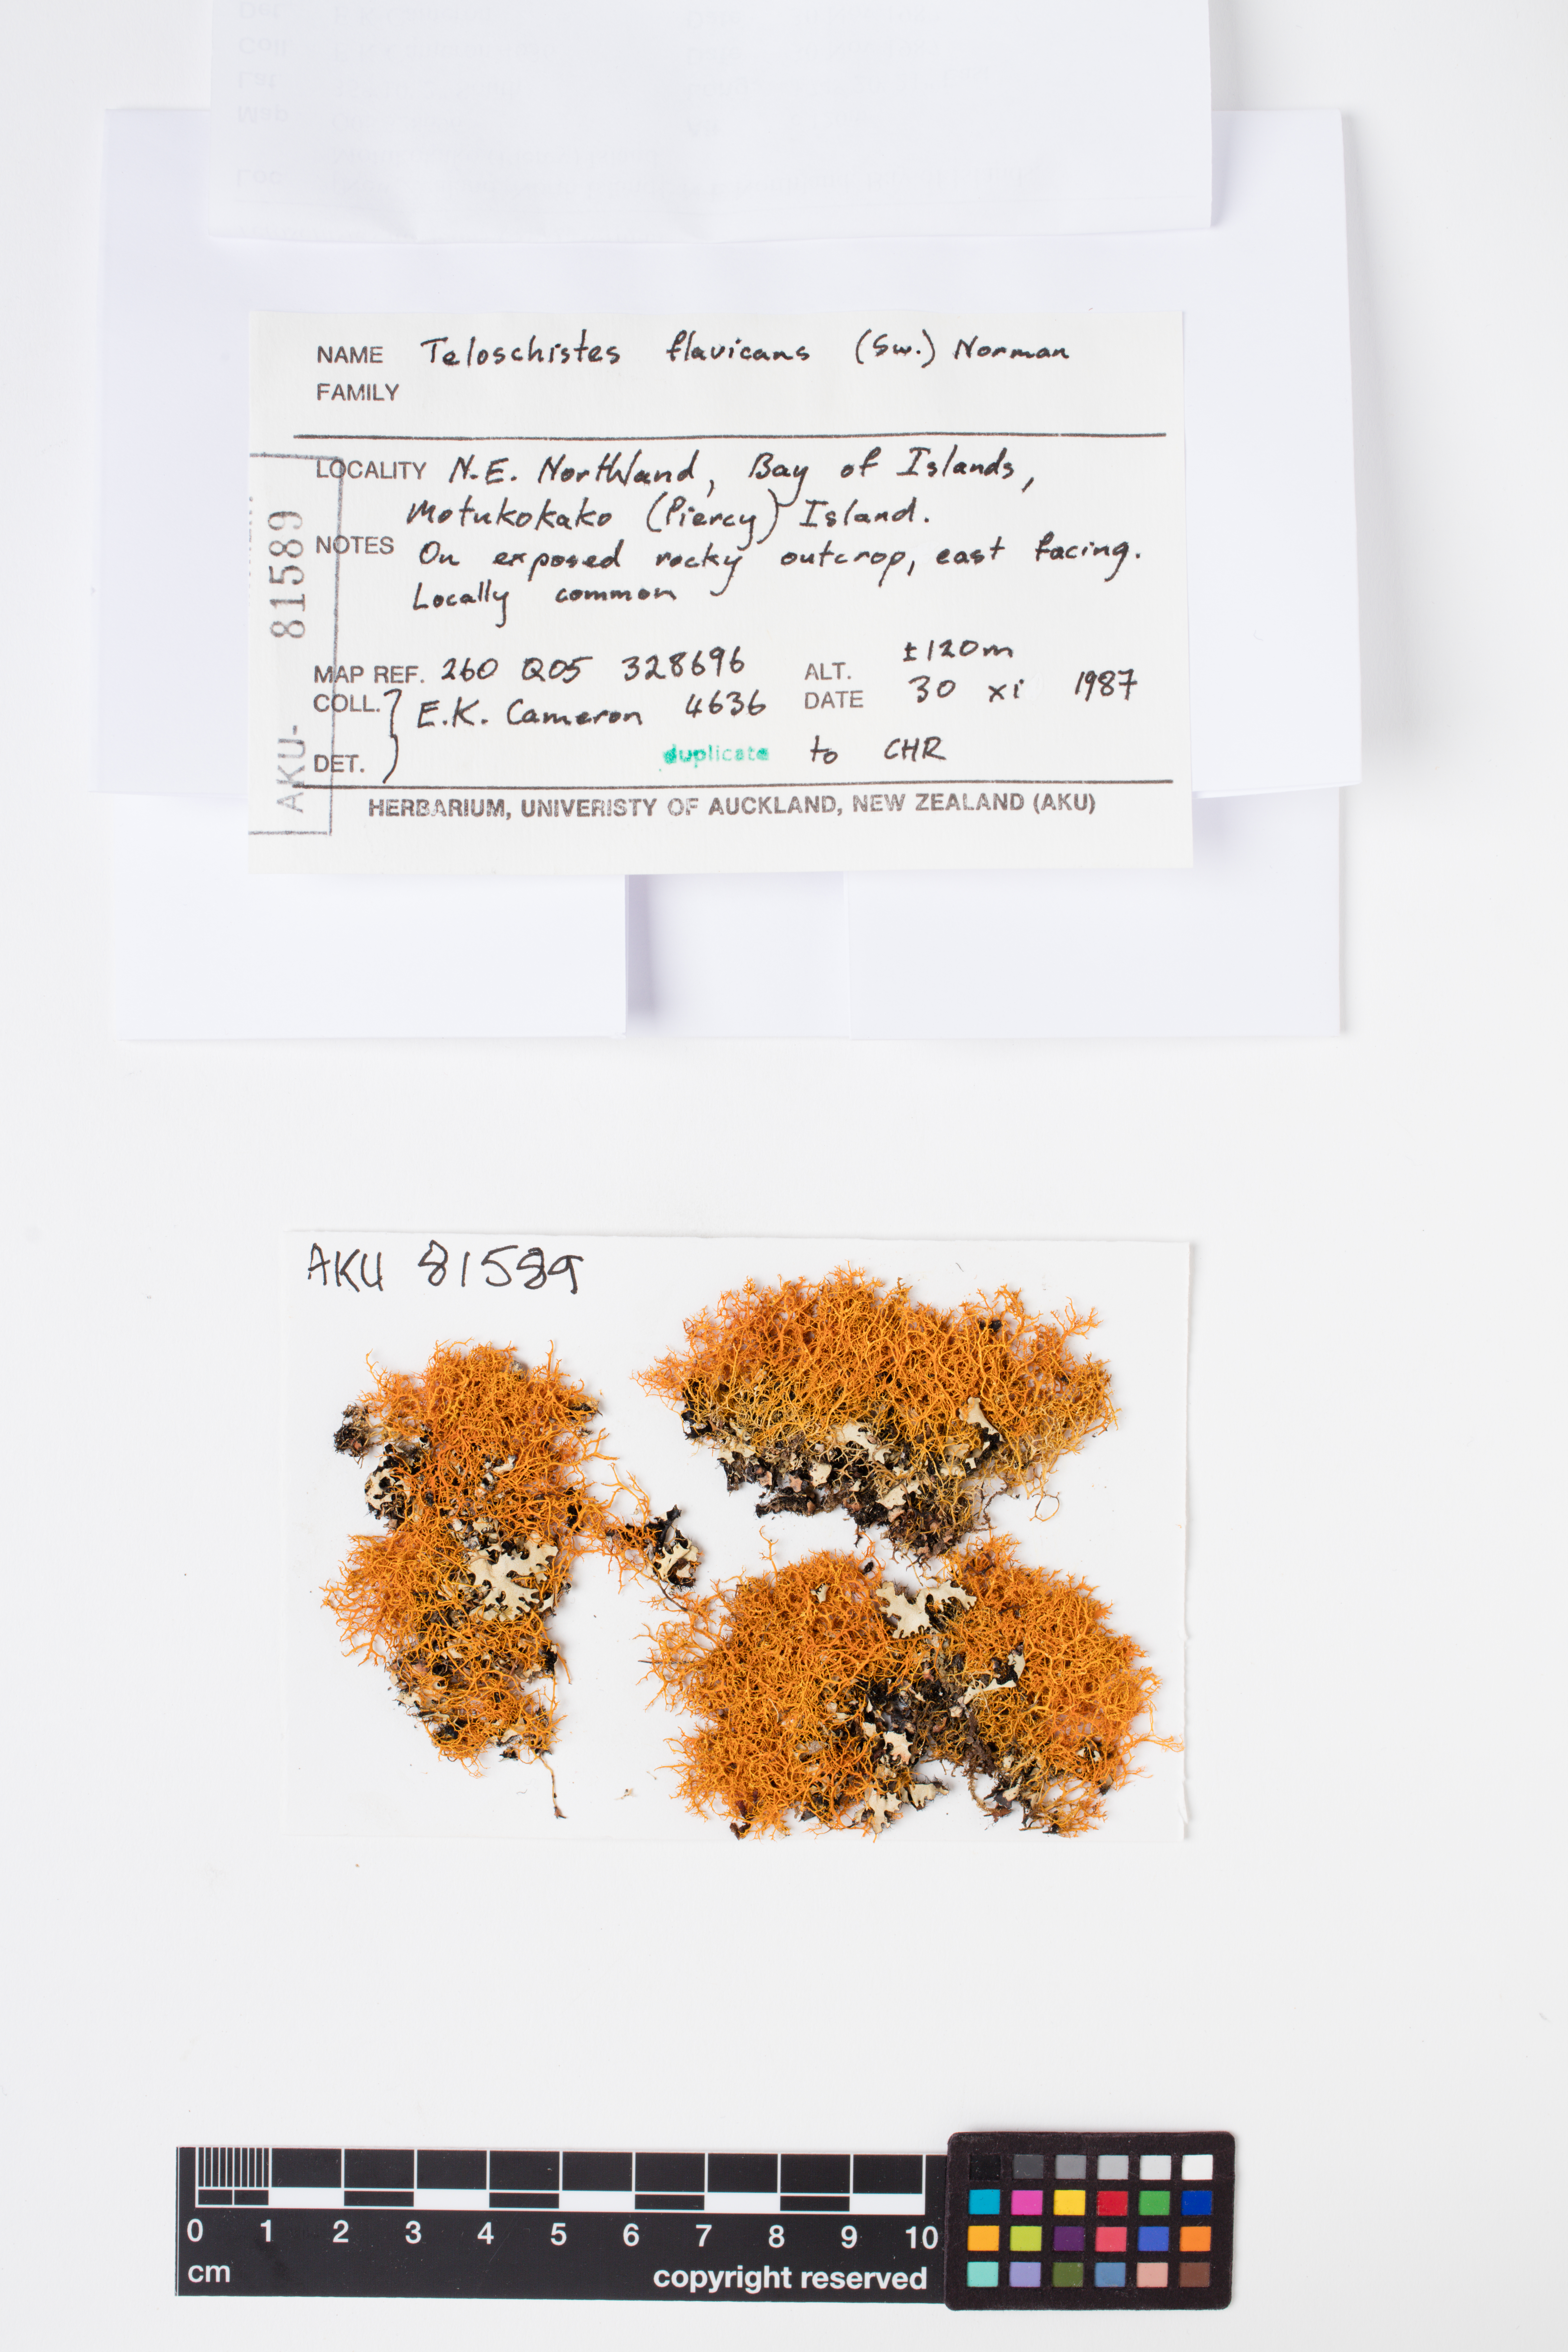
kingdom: Fungi
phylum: Ascomycota
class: Lecanoromycetes
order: Teloschistales
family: Teloschistaceae
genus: Teloschistes
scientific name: Teloschistes flavicans
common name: Golden hair-lichen
